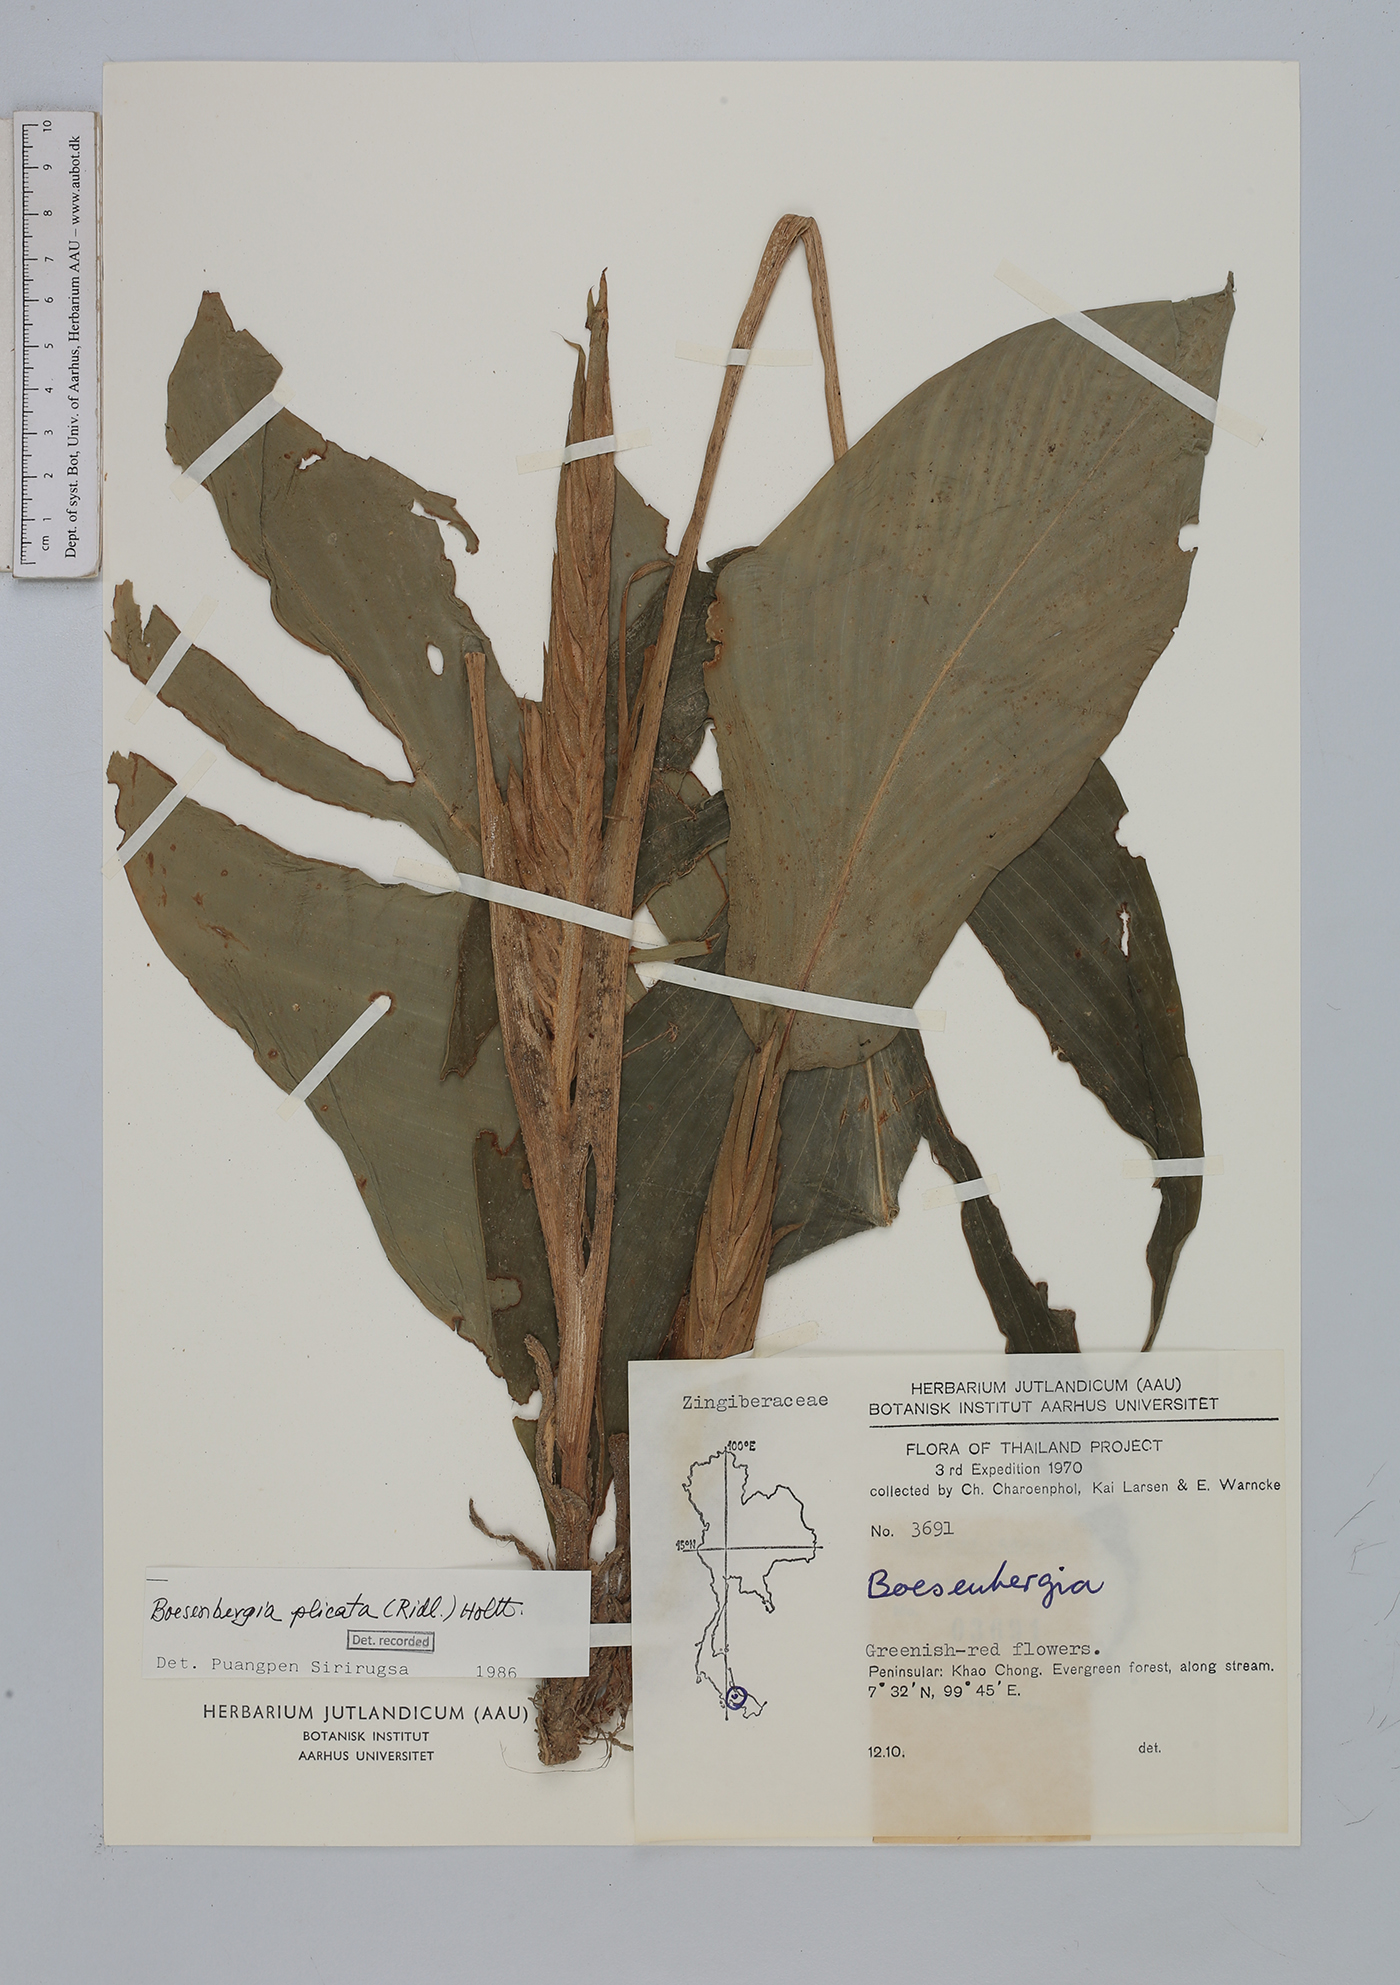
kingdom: Plantae
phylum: Tracheophyta
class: Liliopsida
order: Zingiberales
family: Zingiberaceae
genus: Boesenbergia
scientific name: Boesenbergia plicata
